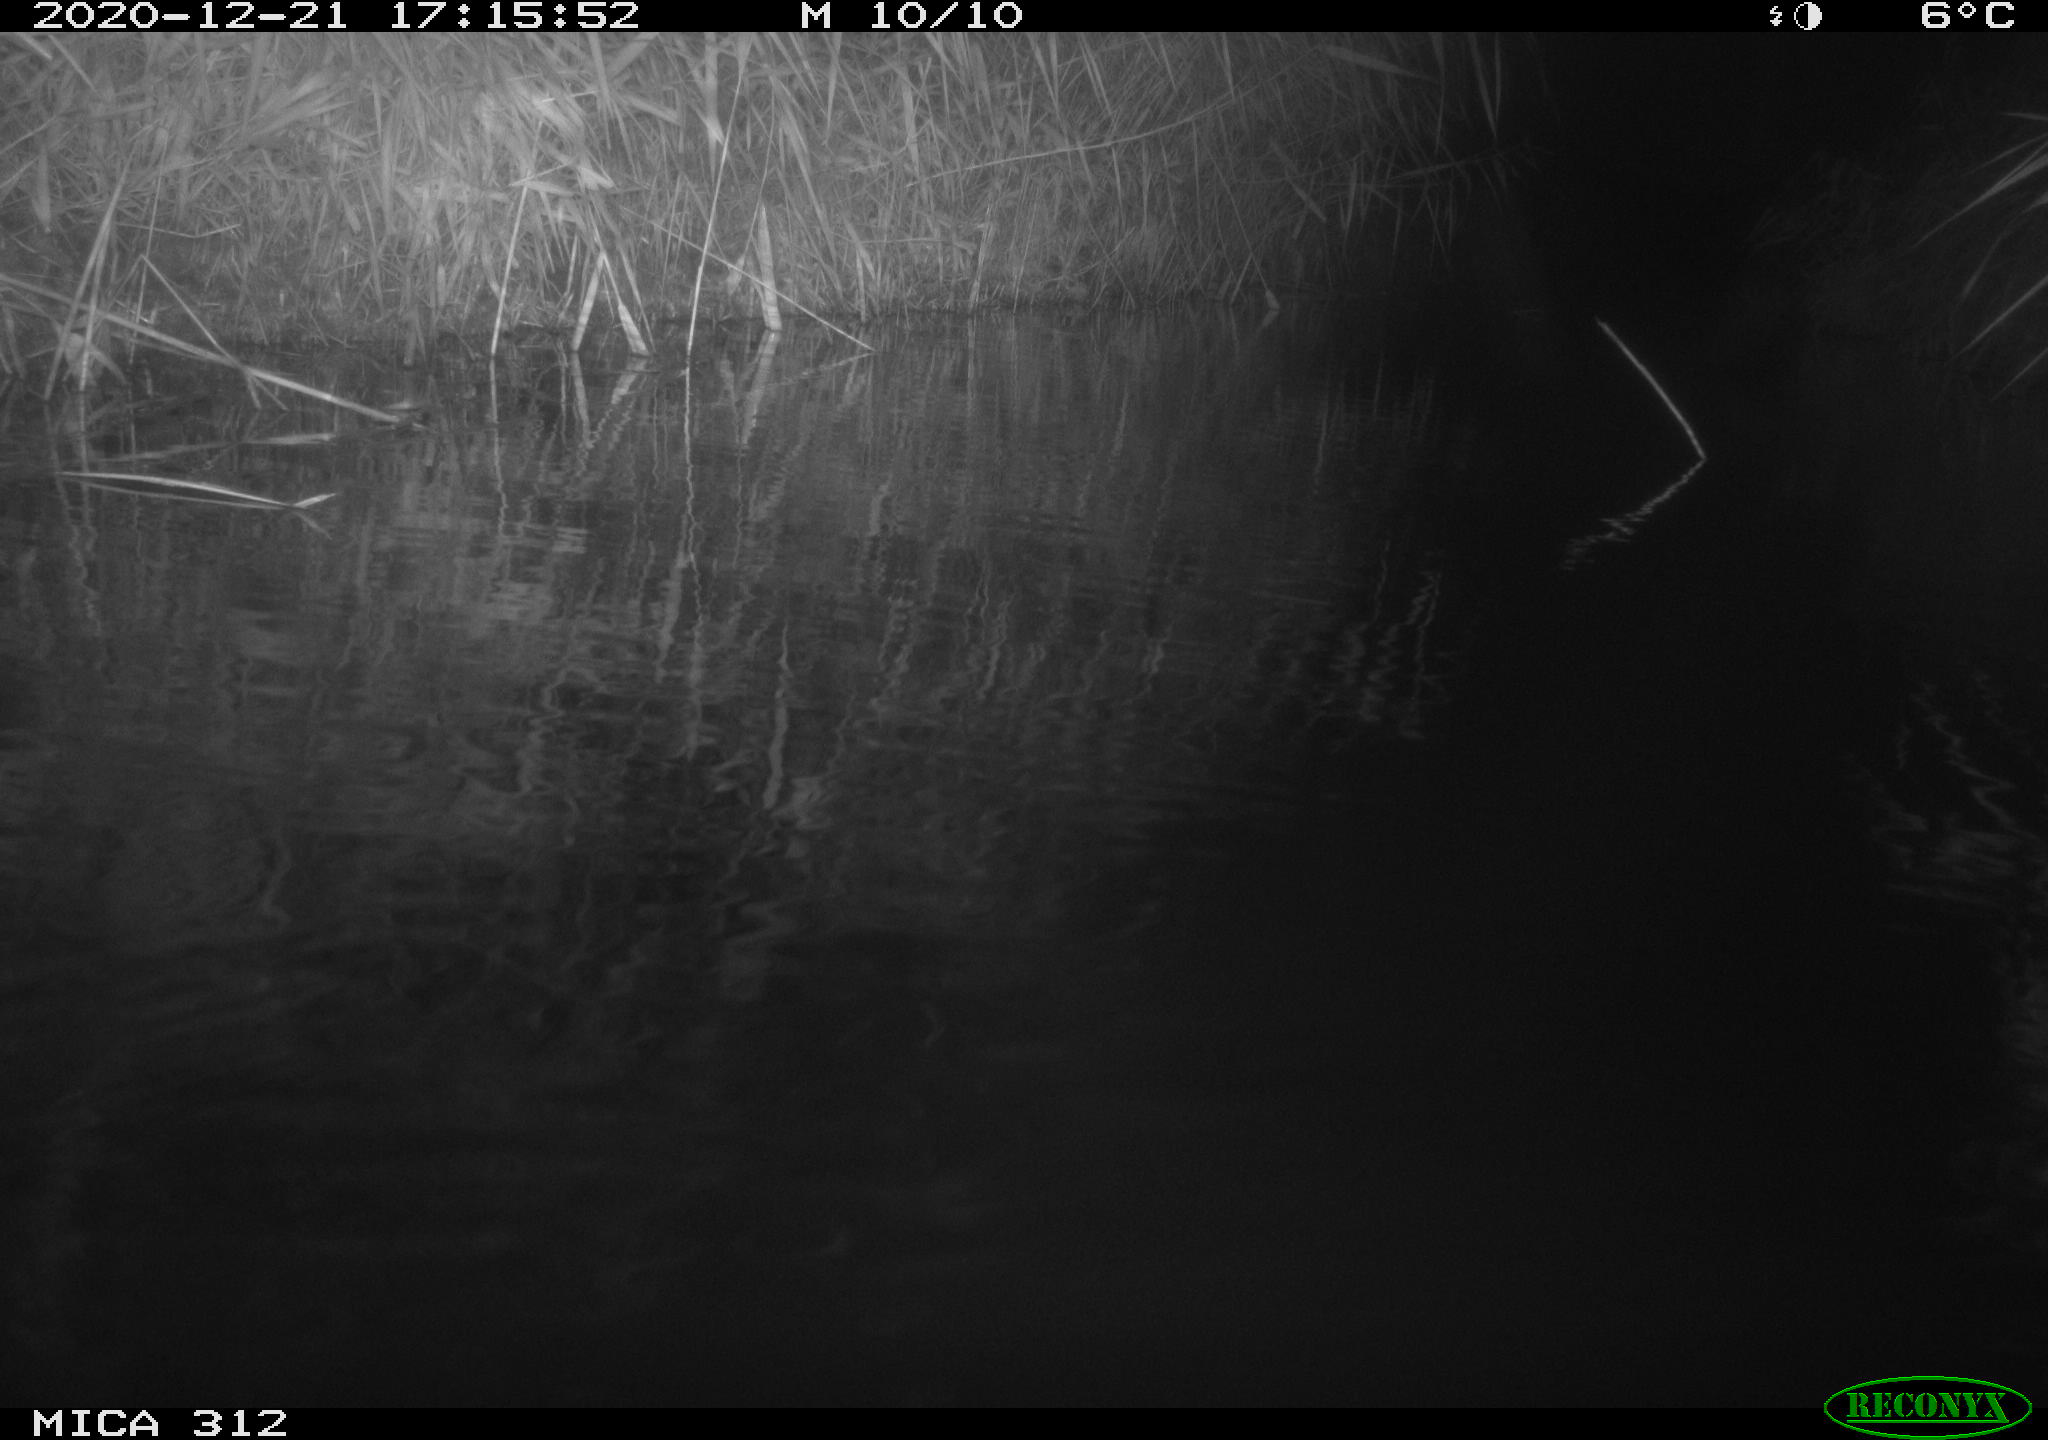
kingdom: Animalia
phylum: Chordata
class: Aves
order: Gruiformes
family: Rallidae
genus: Fulica
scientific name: Fulica atra
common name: Eurasian coot
